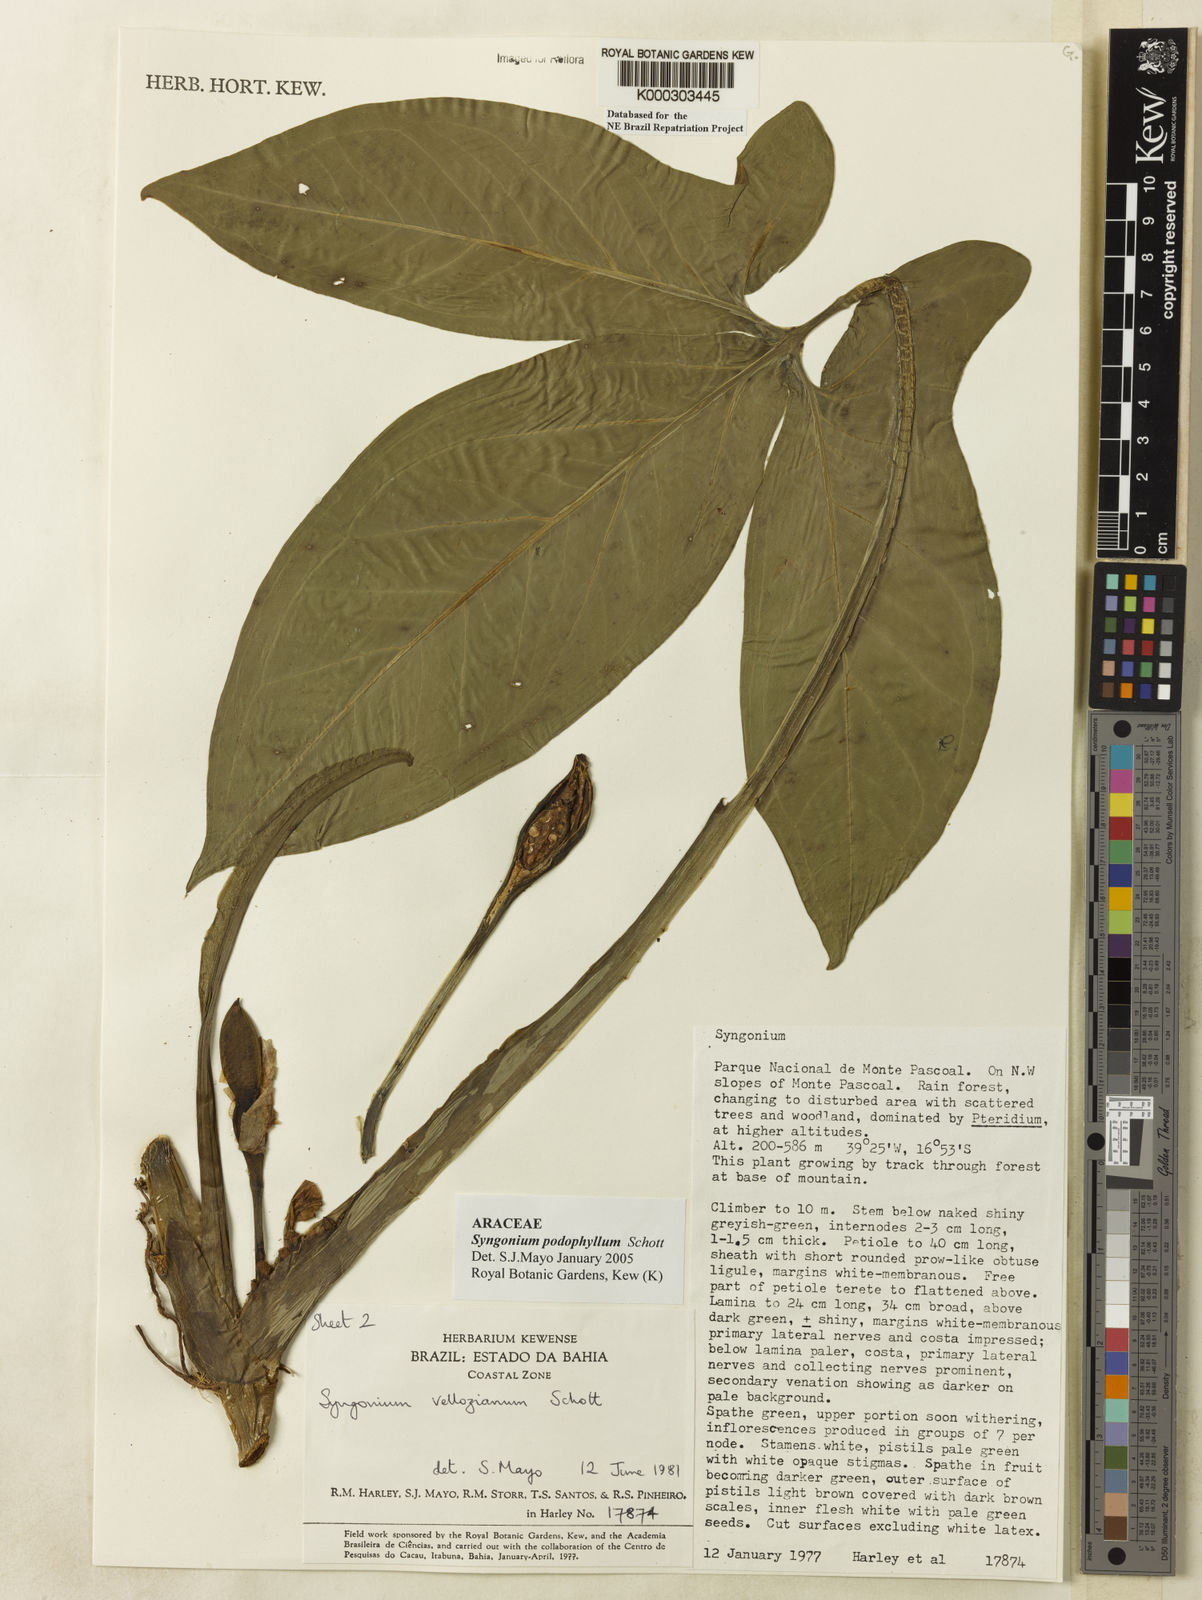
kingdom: Plantae
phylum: Tracheophyta
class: Liliopsida
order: Alismatales
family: Araceae
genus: Syngonium
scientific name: Syngonium podophyllum
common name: American evergreen
